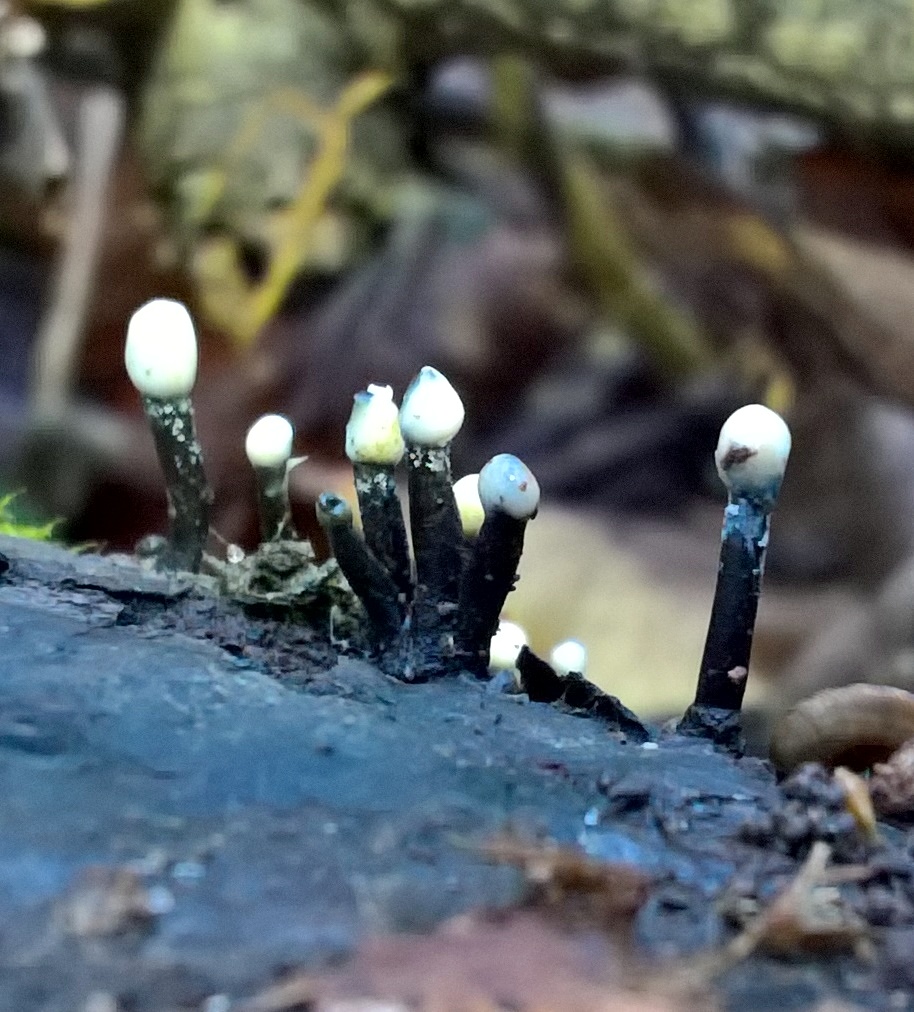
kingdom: Fungi
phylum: Ascomycota
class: Leotiomycetes
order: Helotiales
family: Bulgariaceae
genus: Holwaya
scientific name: Holwaya mucida
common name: lindeskive
